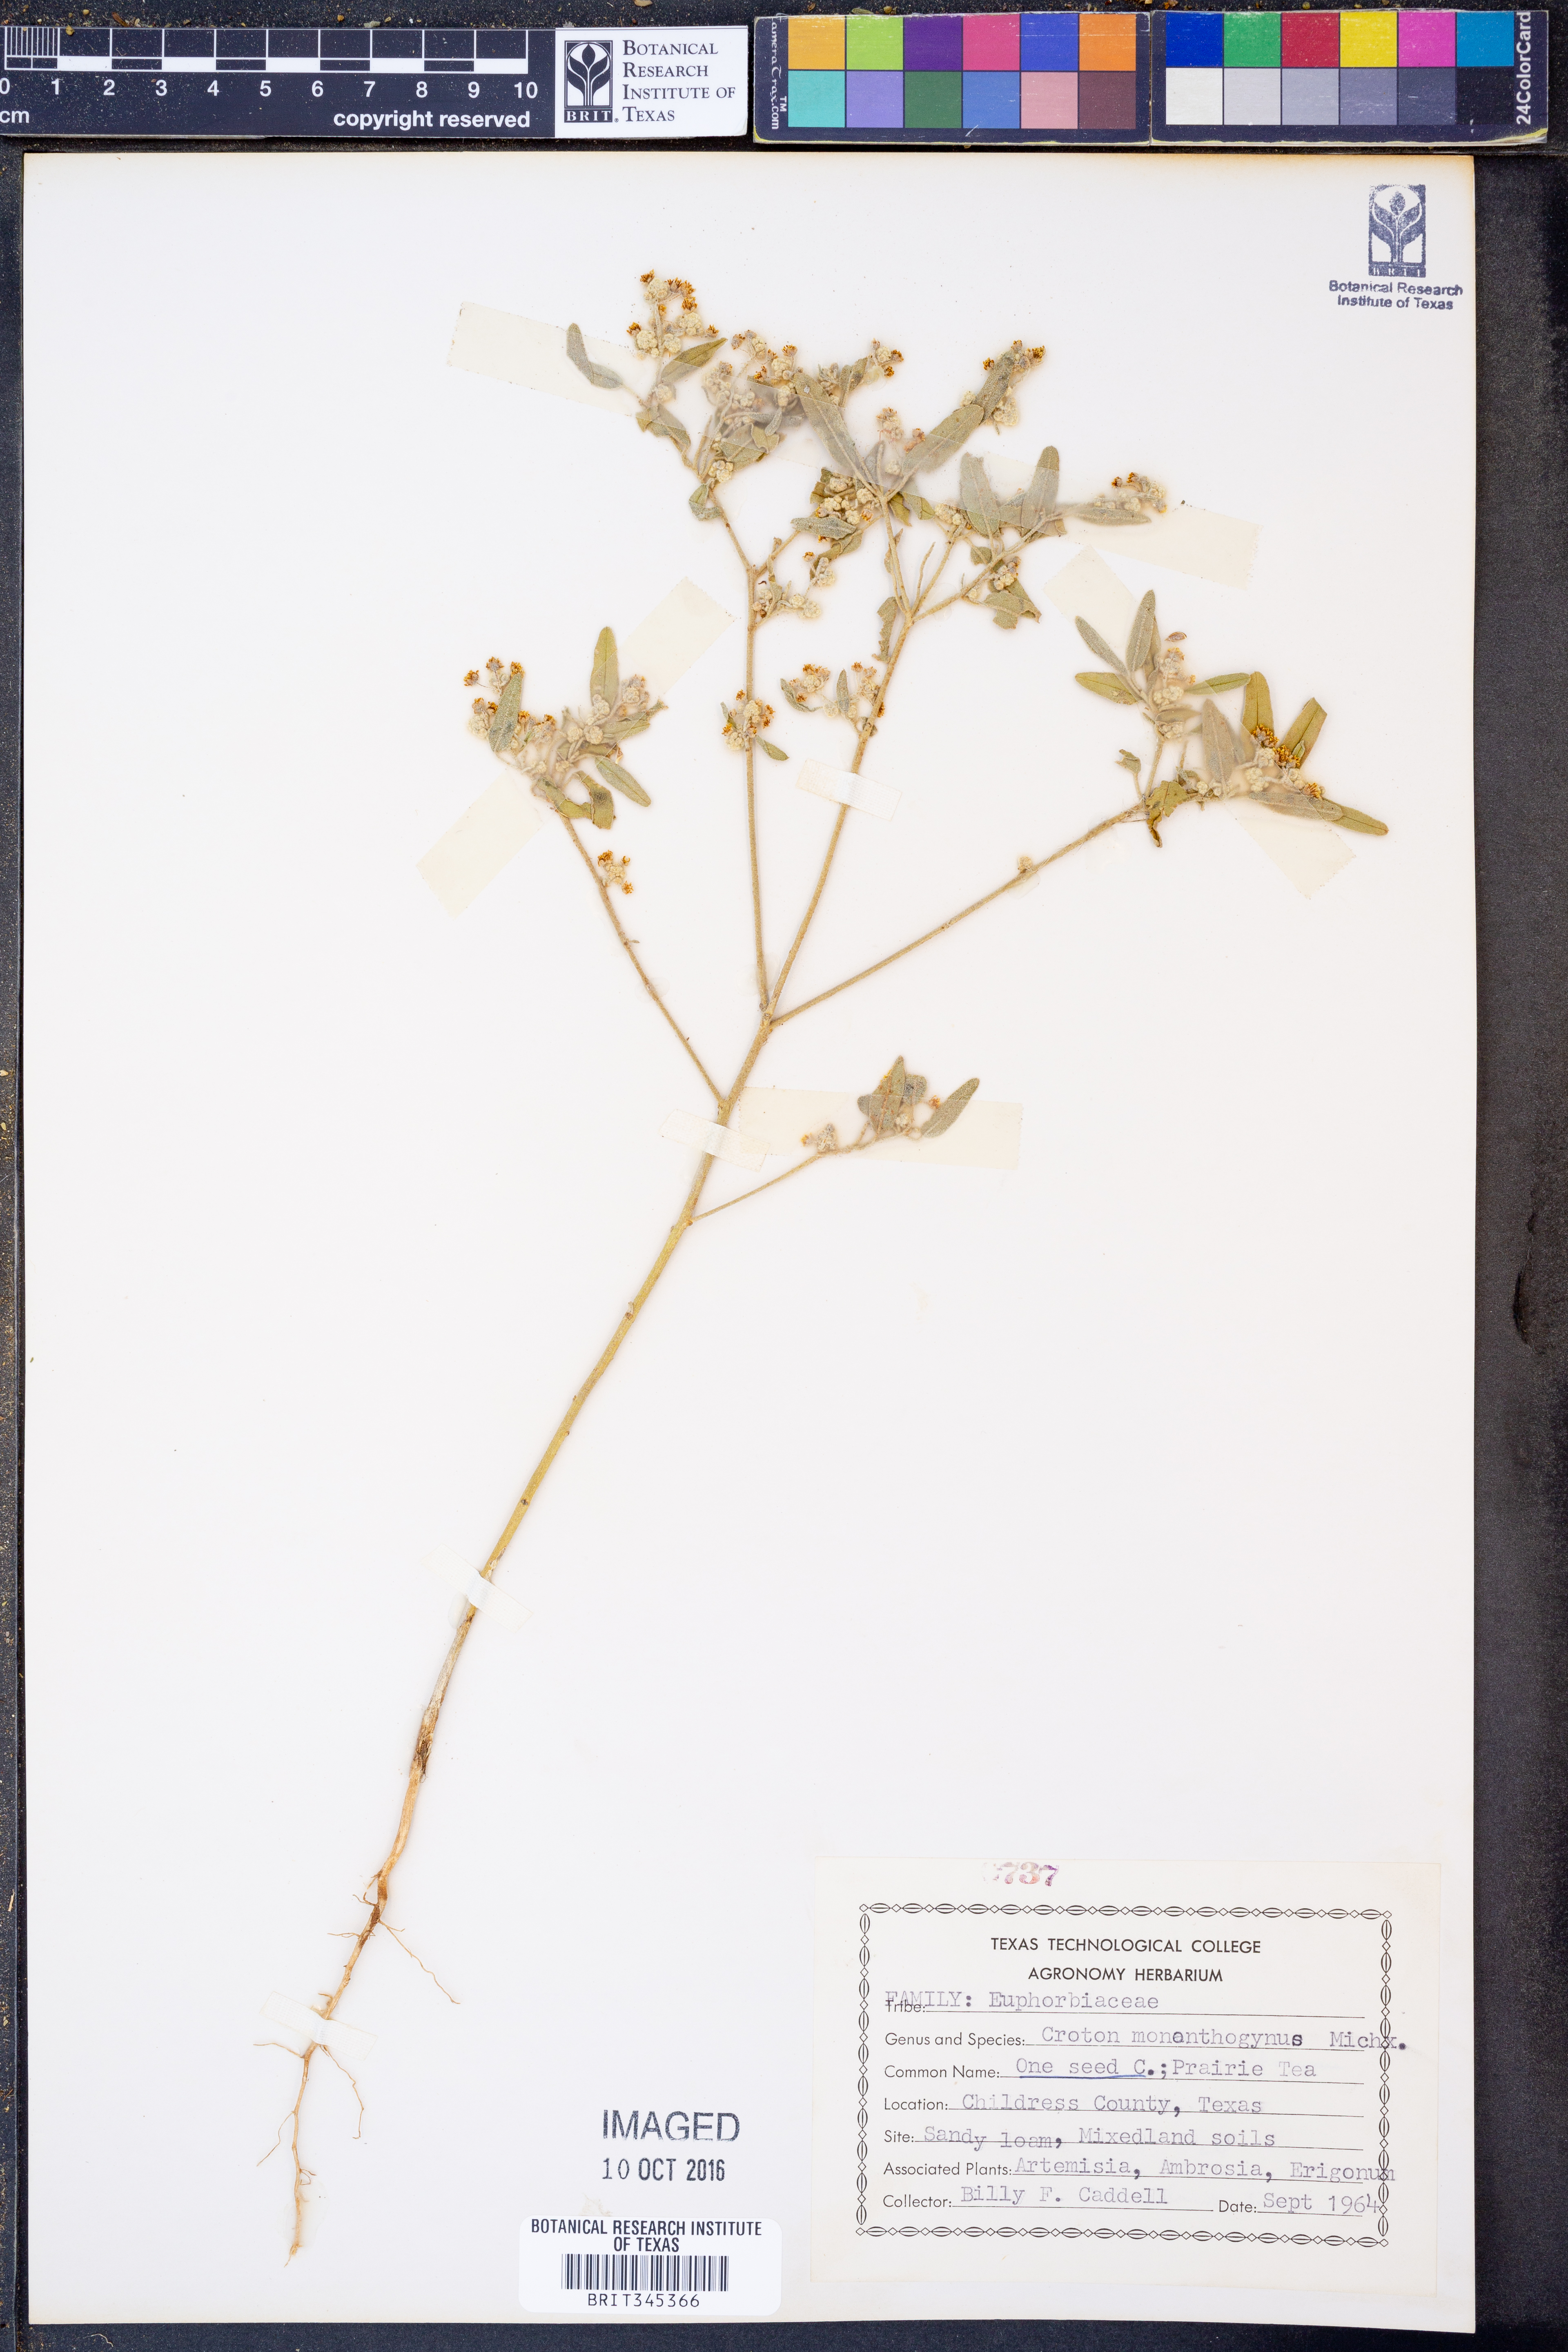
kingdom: Plantae
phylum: Tracheophyta
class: Magnoliopsida
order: Malpighiales
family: Euphorbiaceae
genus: Croton
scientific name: Croton monanthogynus
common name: One-seed croton
